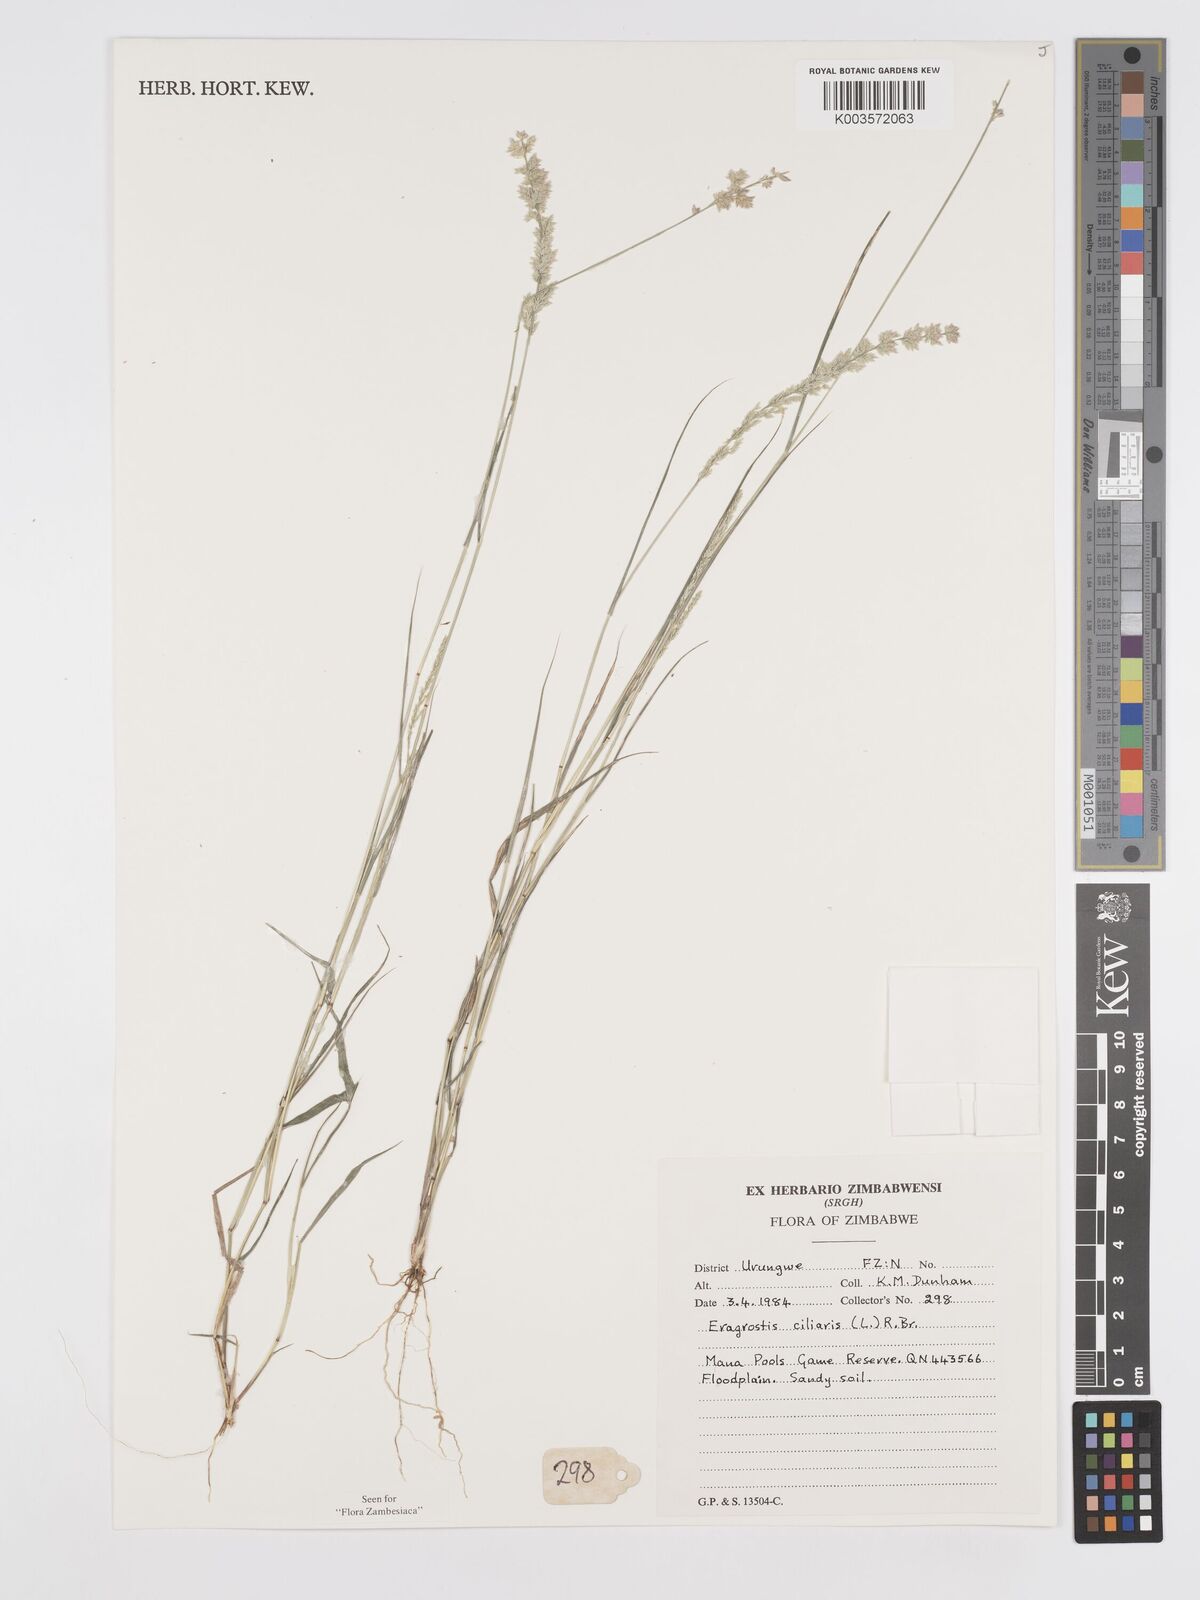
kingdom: Plantae
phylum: Tracheophyta
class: Liliopsida
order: Poales
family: Poaceae
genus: Eragrostis
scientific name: Eragrostis ciliaris
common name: Gophertail lovegrass
